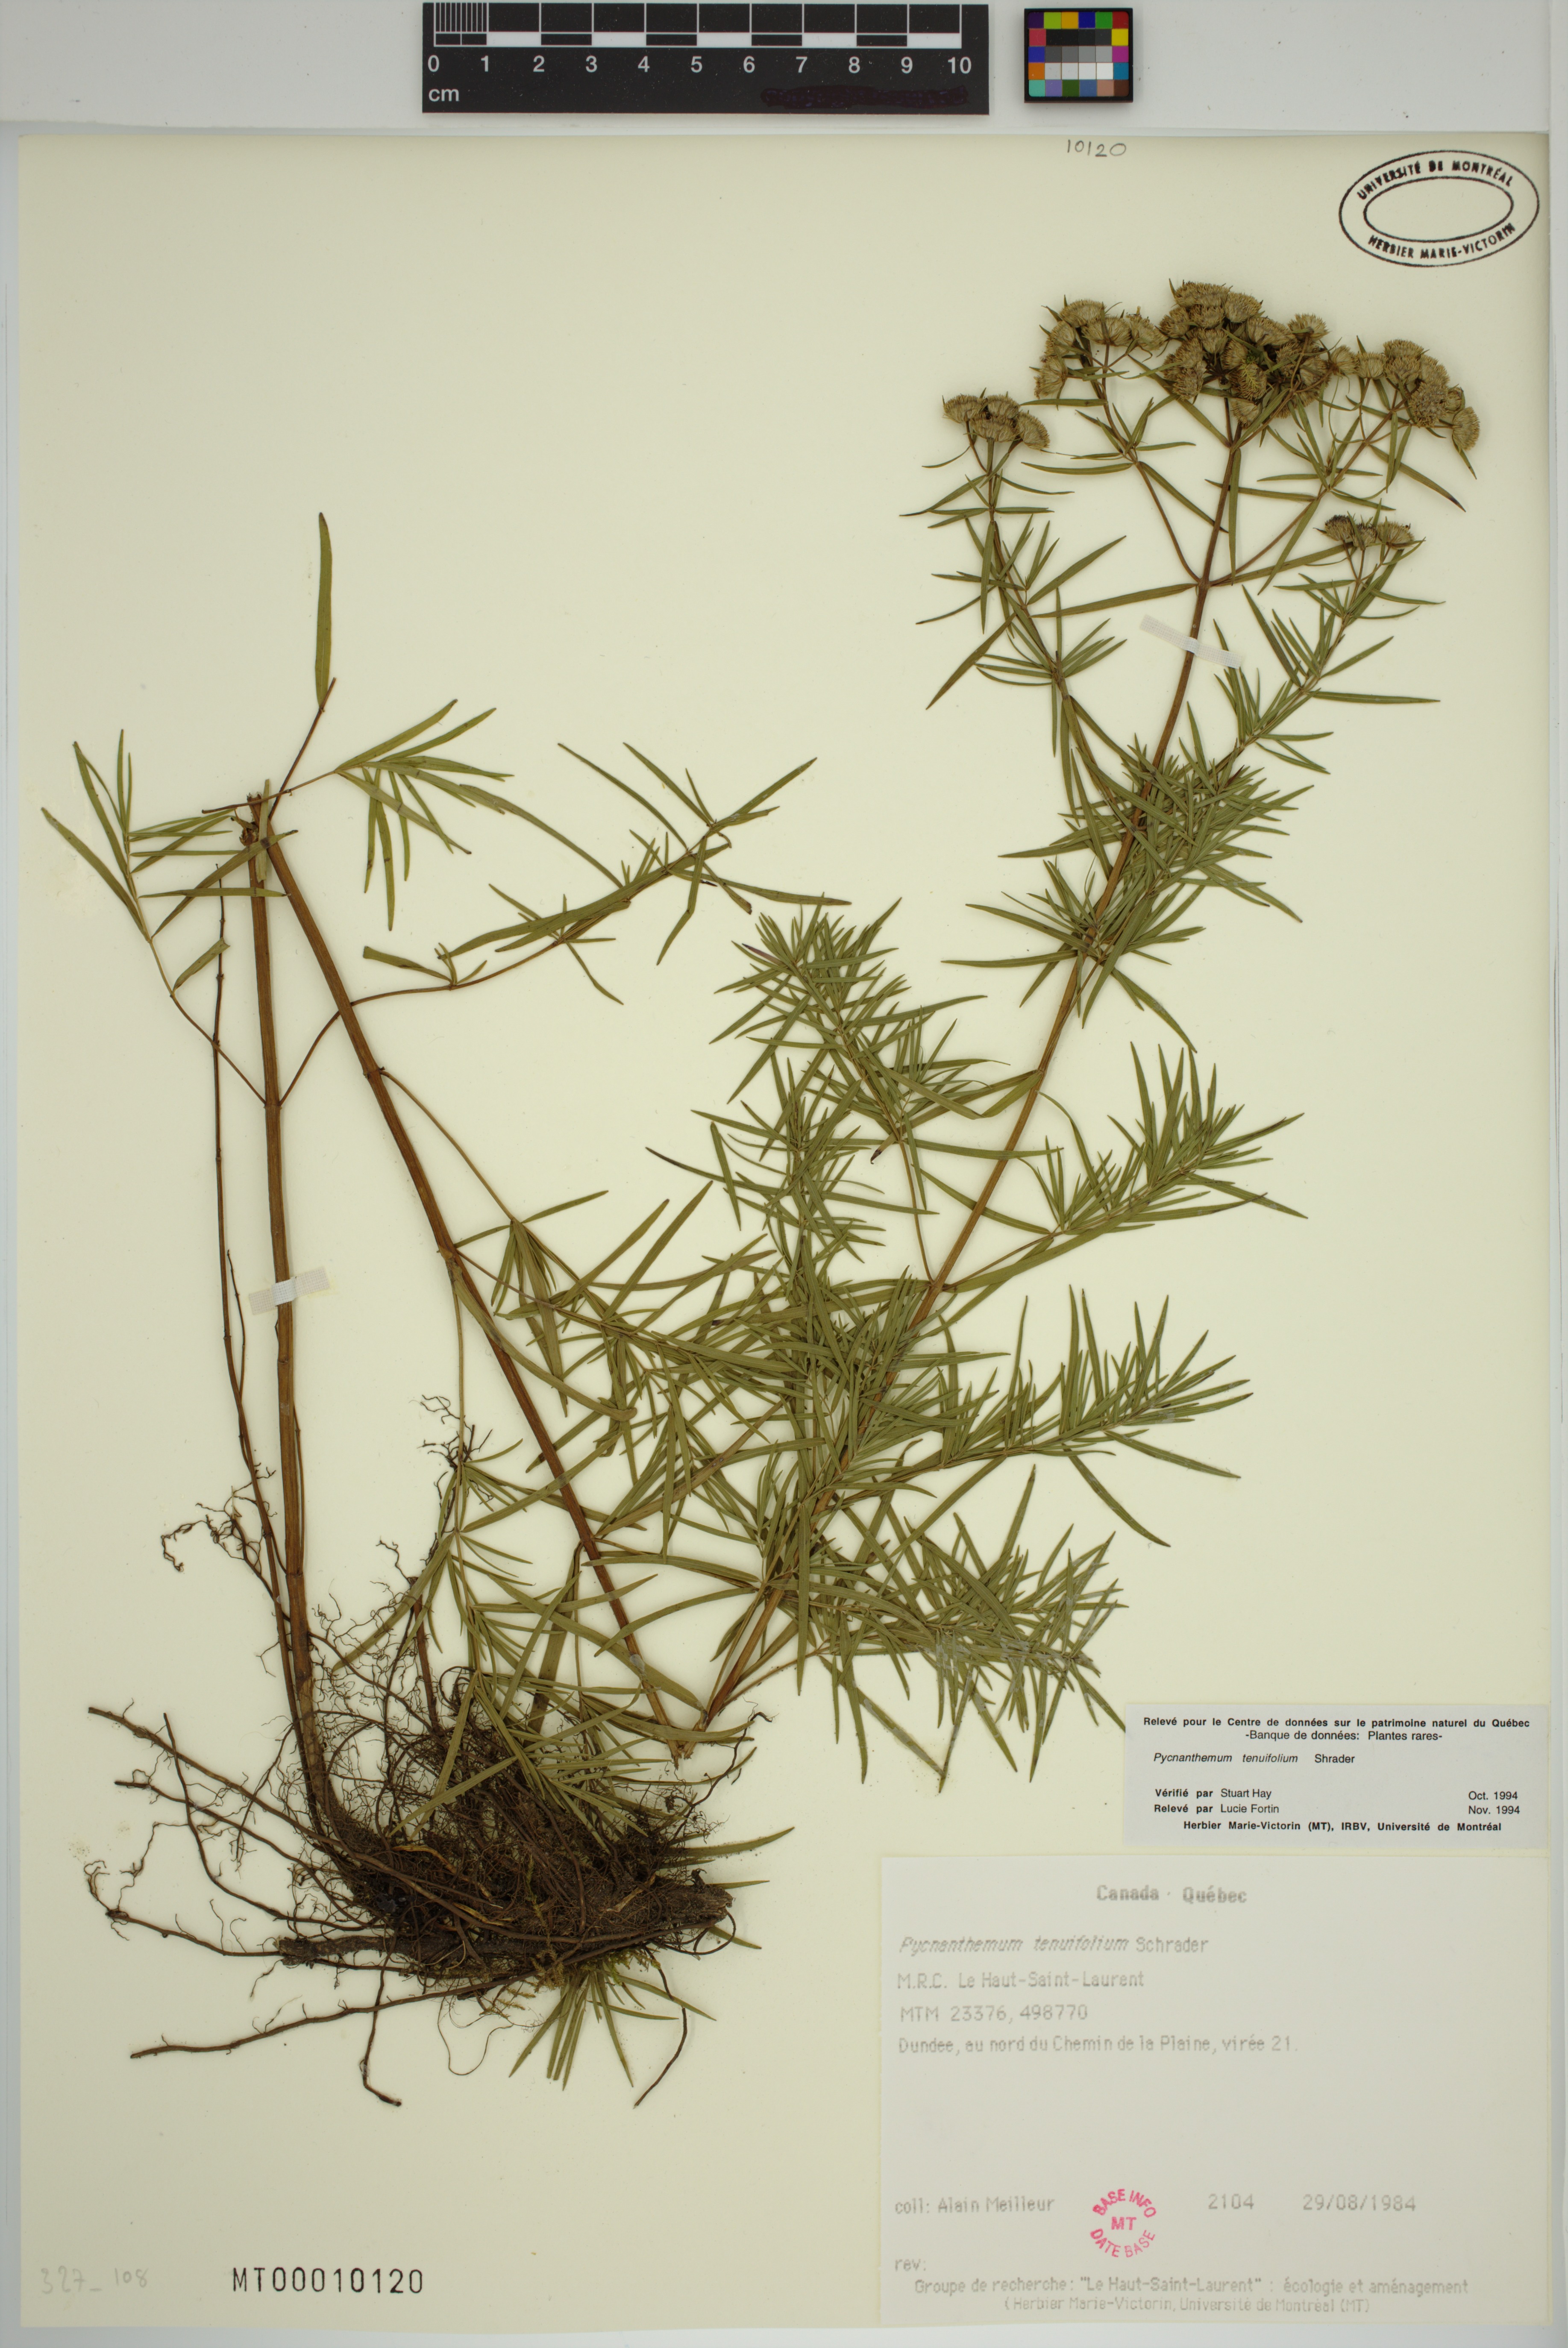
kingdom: Plantae
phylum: Tracheophyta
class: Magnoliopsida
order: Lamiales
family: Lamiaceae
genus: Pycnanthemum
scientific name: Pycnanthemum tenuifolium
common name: Narrow-leaf mountain-mint
